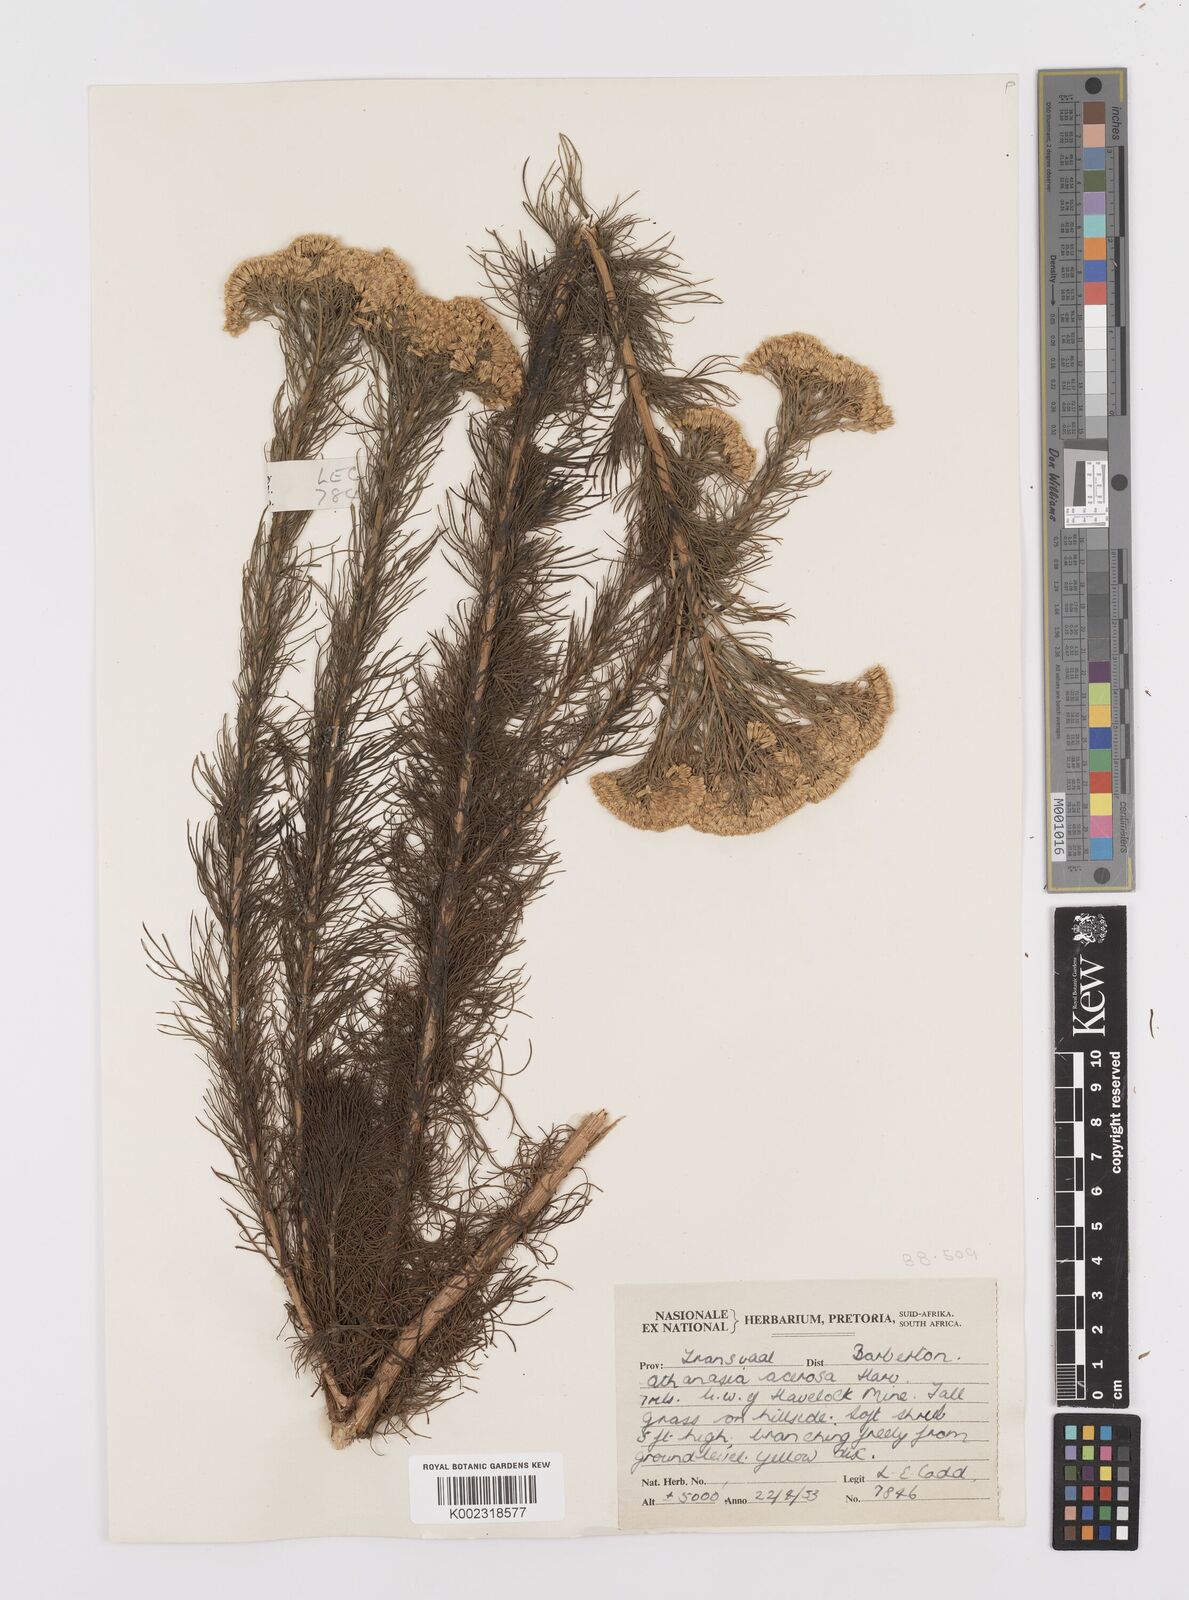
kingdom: Plantae
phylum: Tracheophyta
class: Magnoliopsida
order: Asterales
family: Asteraceae
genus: Phymaspermum
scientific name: Phymaspermum acerosum
